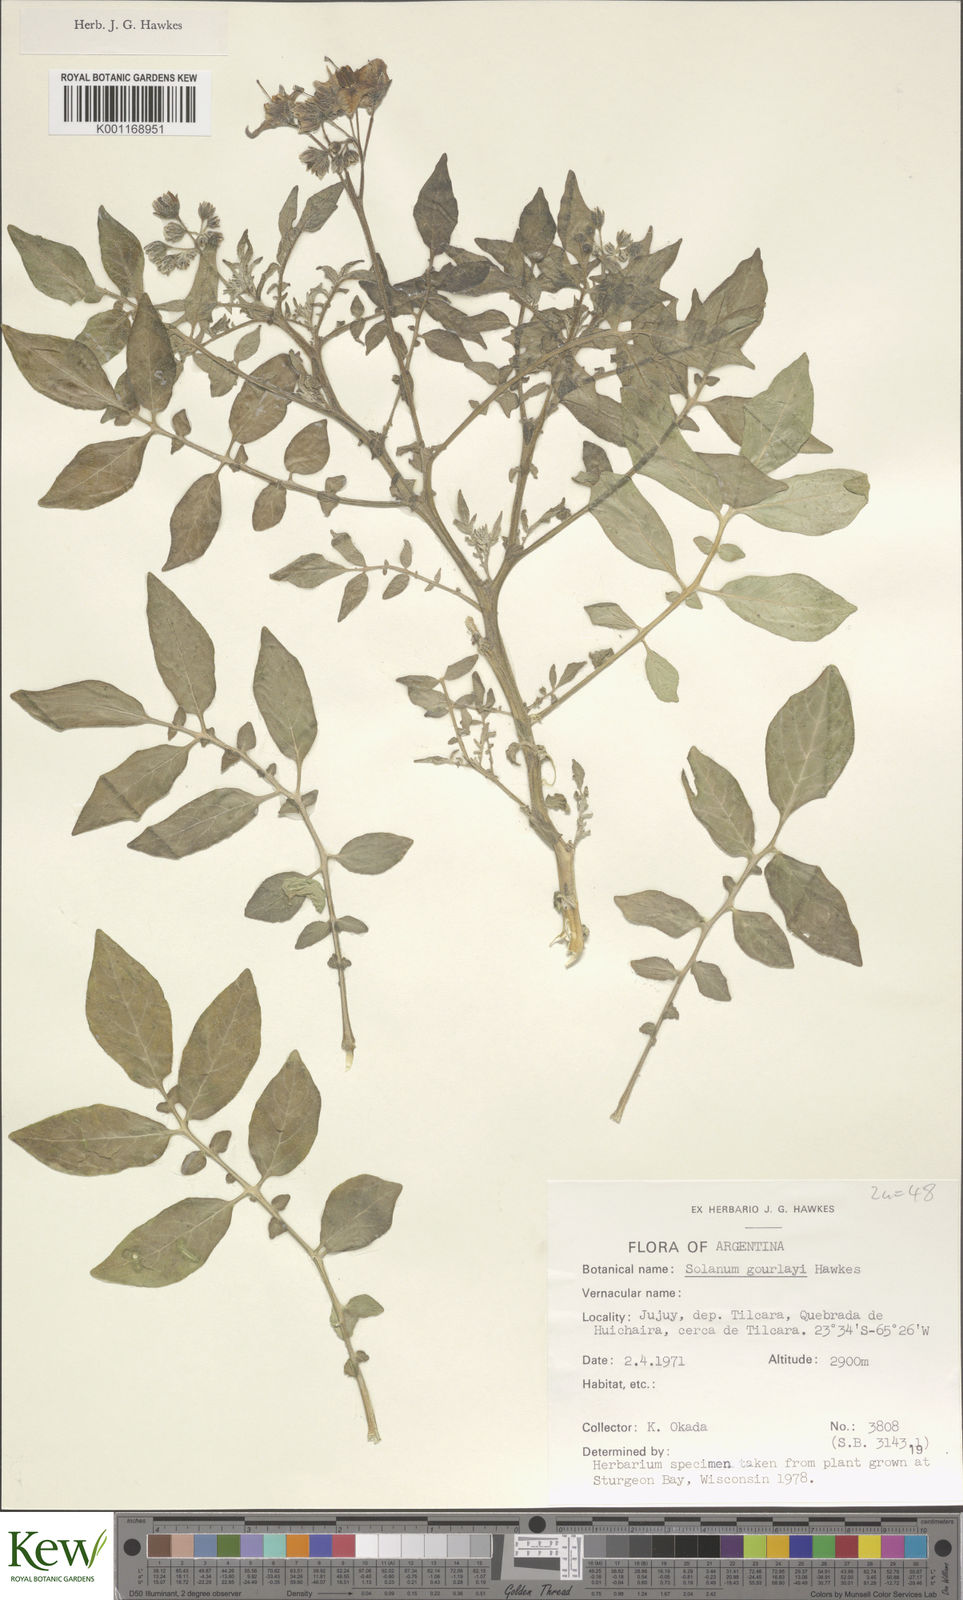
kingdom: Plantae
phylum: Tracheophyta
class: Magnoliopsida
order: Solanales
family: Solanaceae
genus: Solanum
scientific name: Solanum brevicaule
